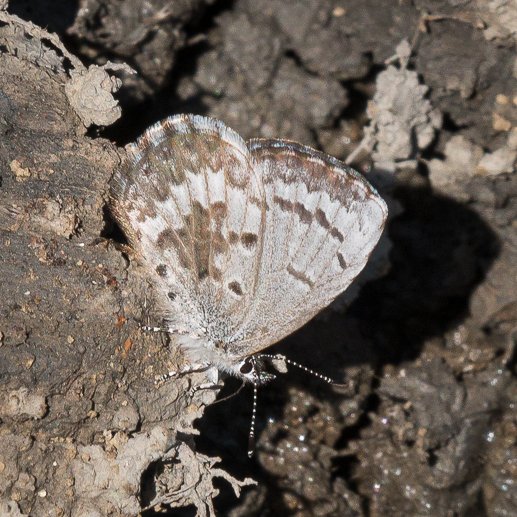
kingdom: Animalia
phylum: Arthropoda
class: Insecta
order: Lepidoptera
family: Lycaenidae
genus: Celastrina
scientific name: Celastrina lucia
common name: Northern Spring Azure
